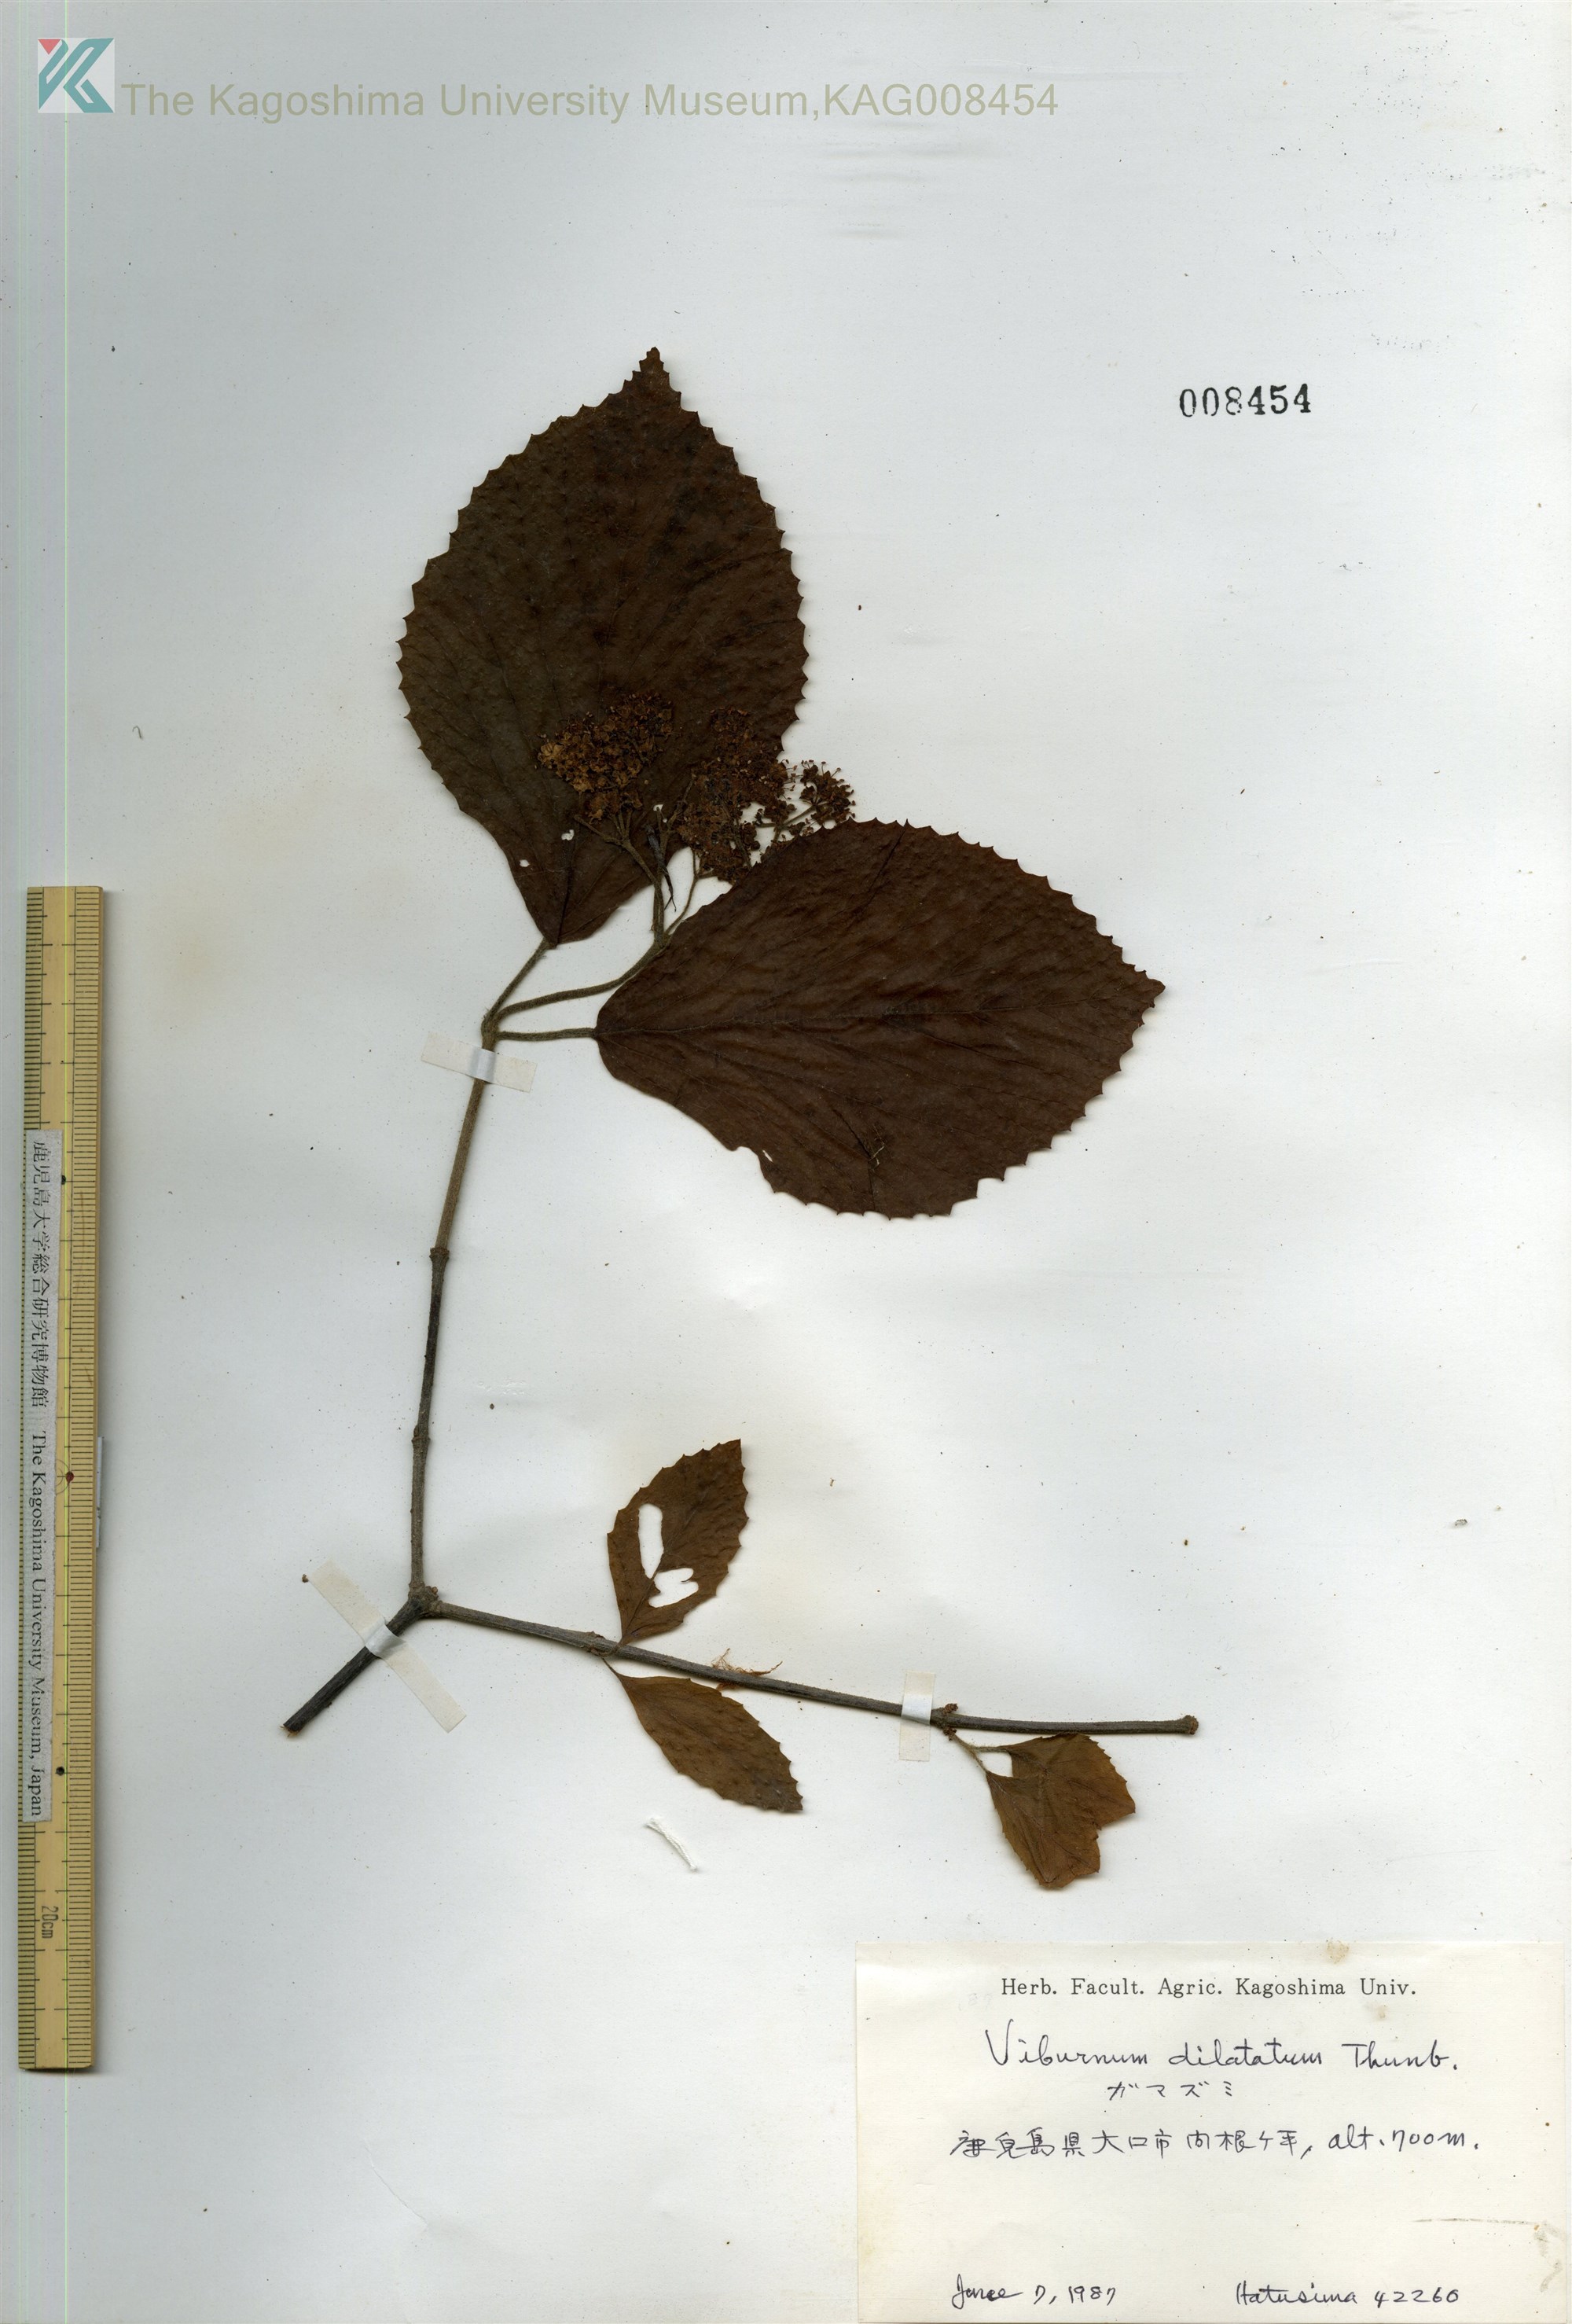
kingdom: Plantae
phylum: Tracheophyta
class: Magnoliopsida
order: Dipsacales
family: Viburnaceae
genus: Viburnum
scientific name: Viburnum dilatatum
